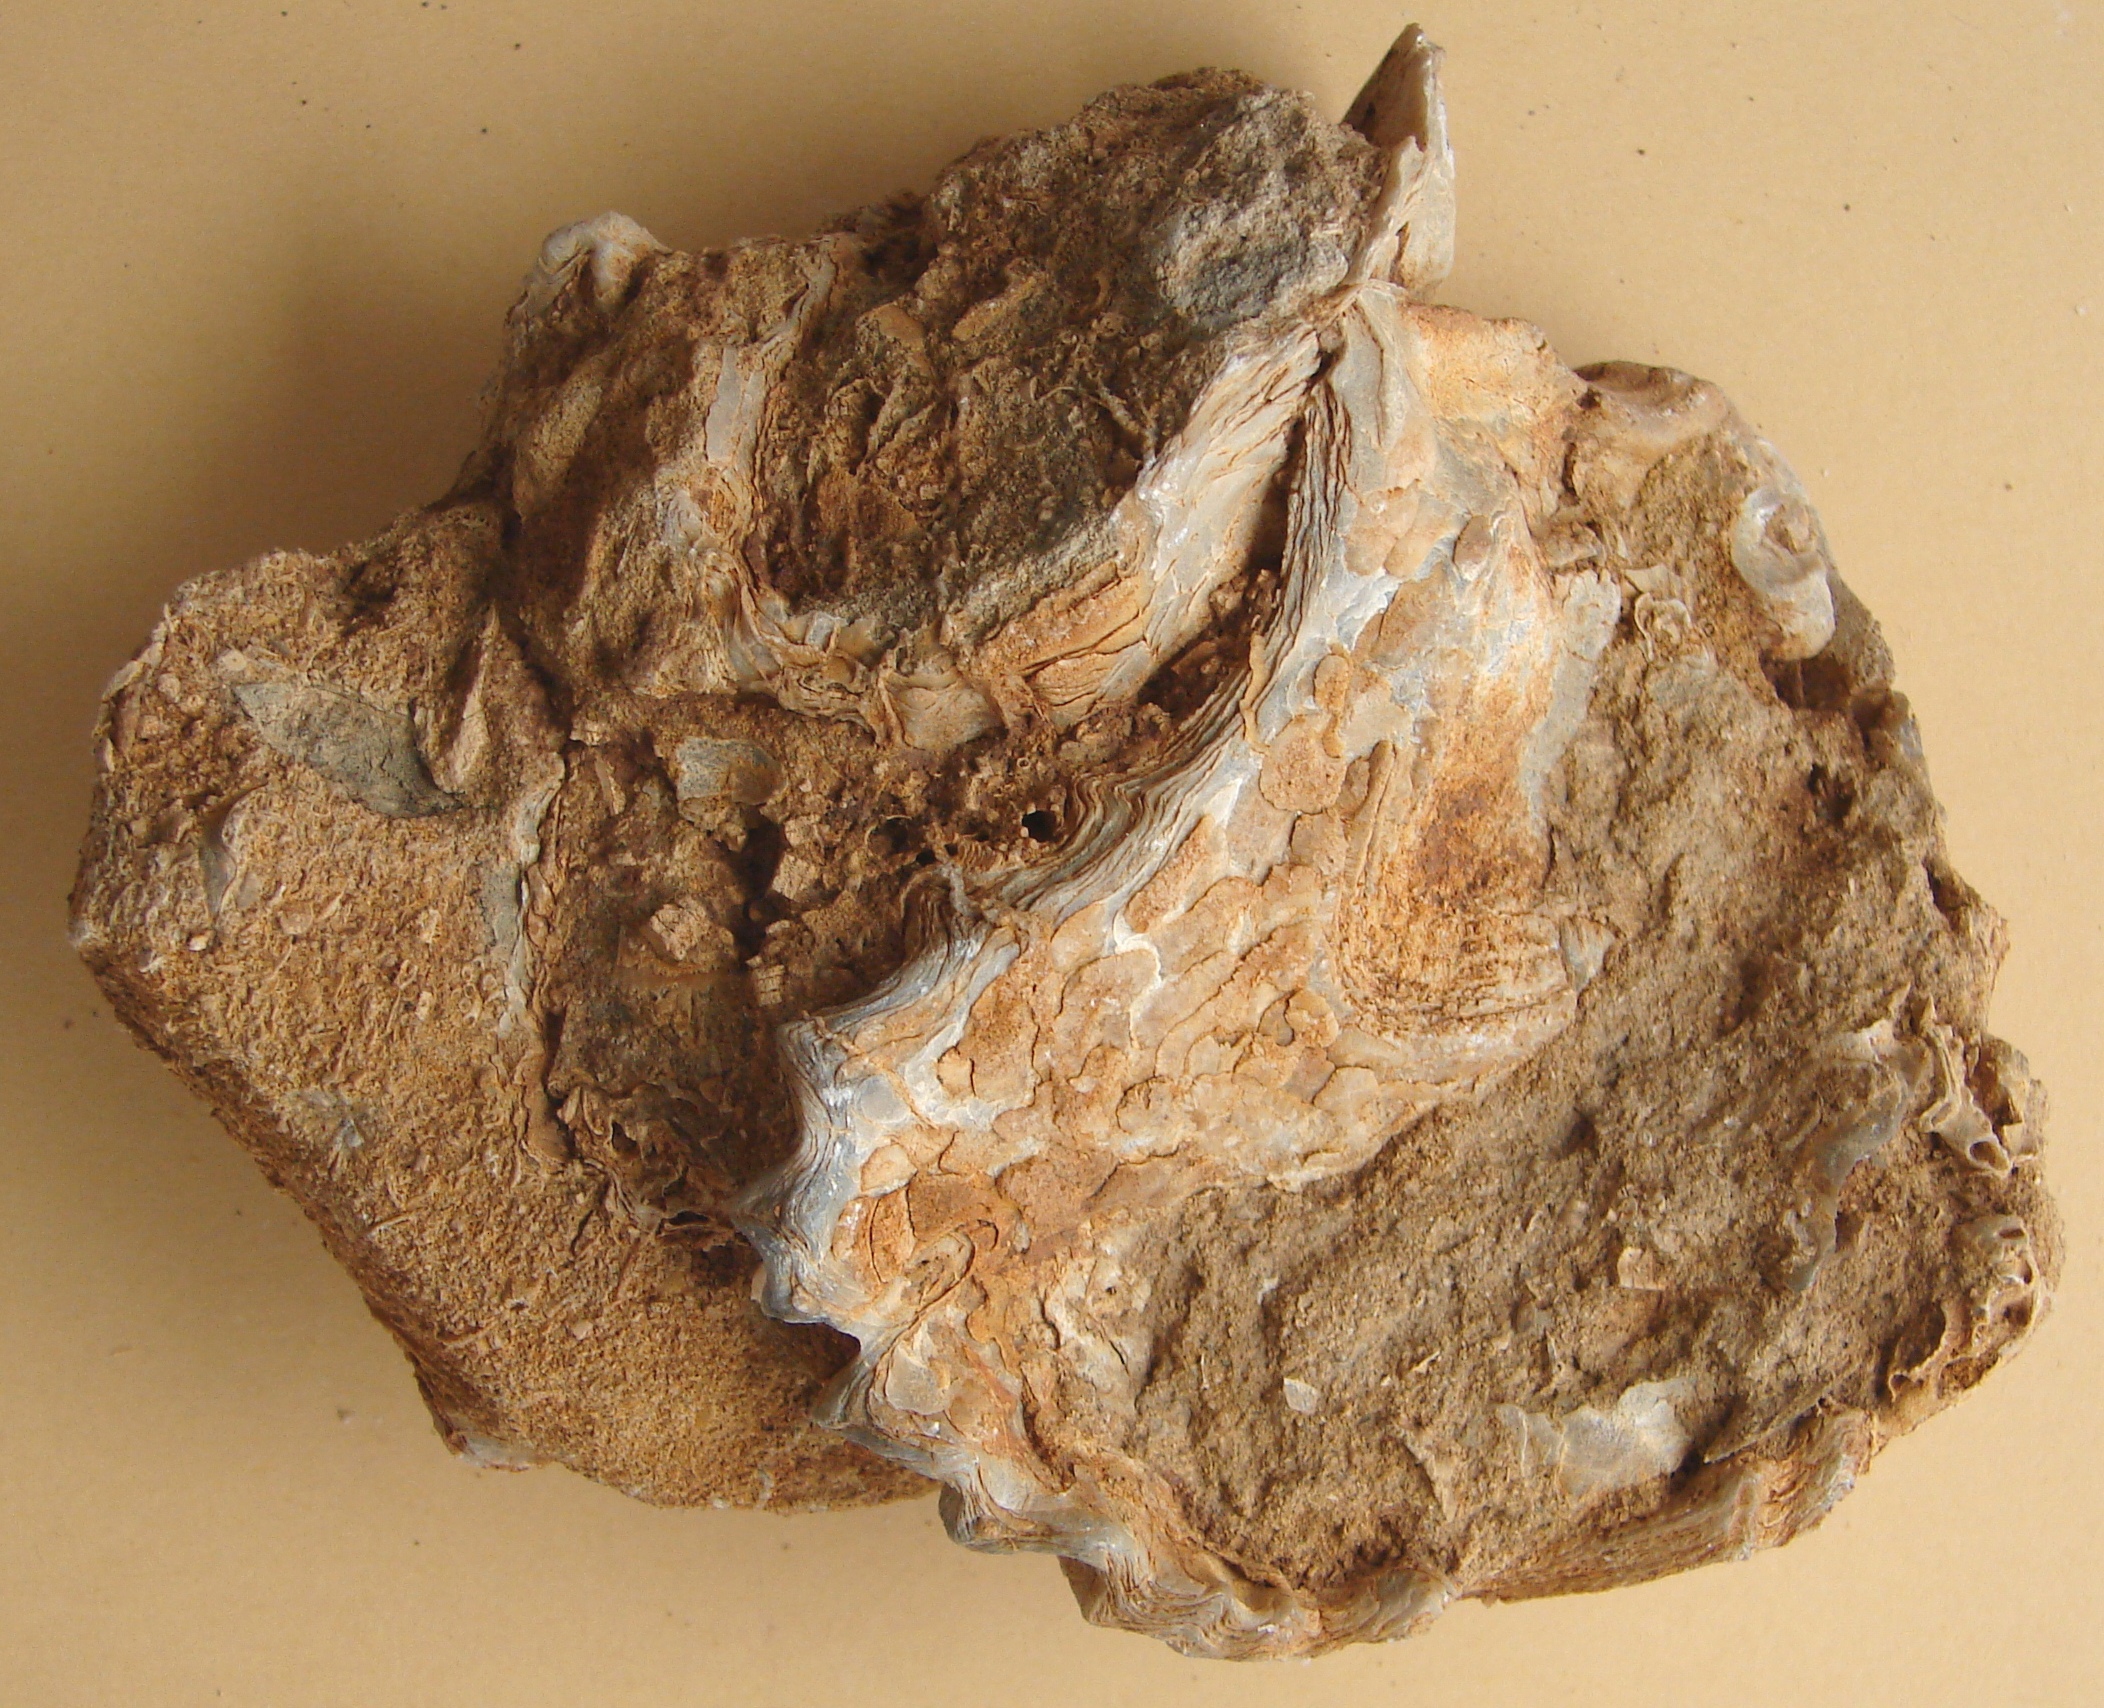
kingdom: Animalia
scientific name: Animalia
